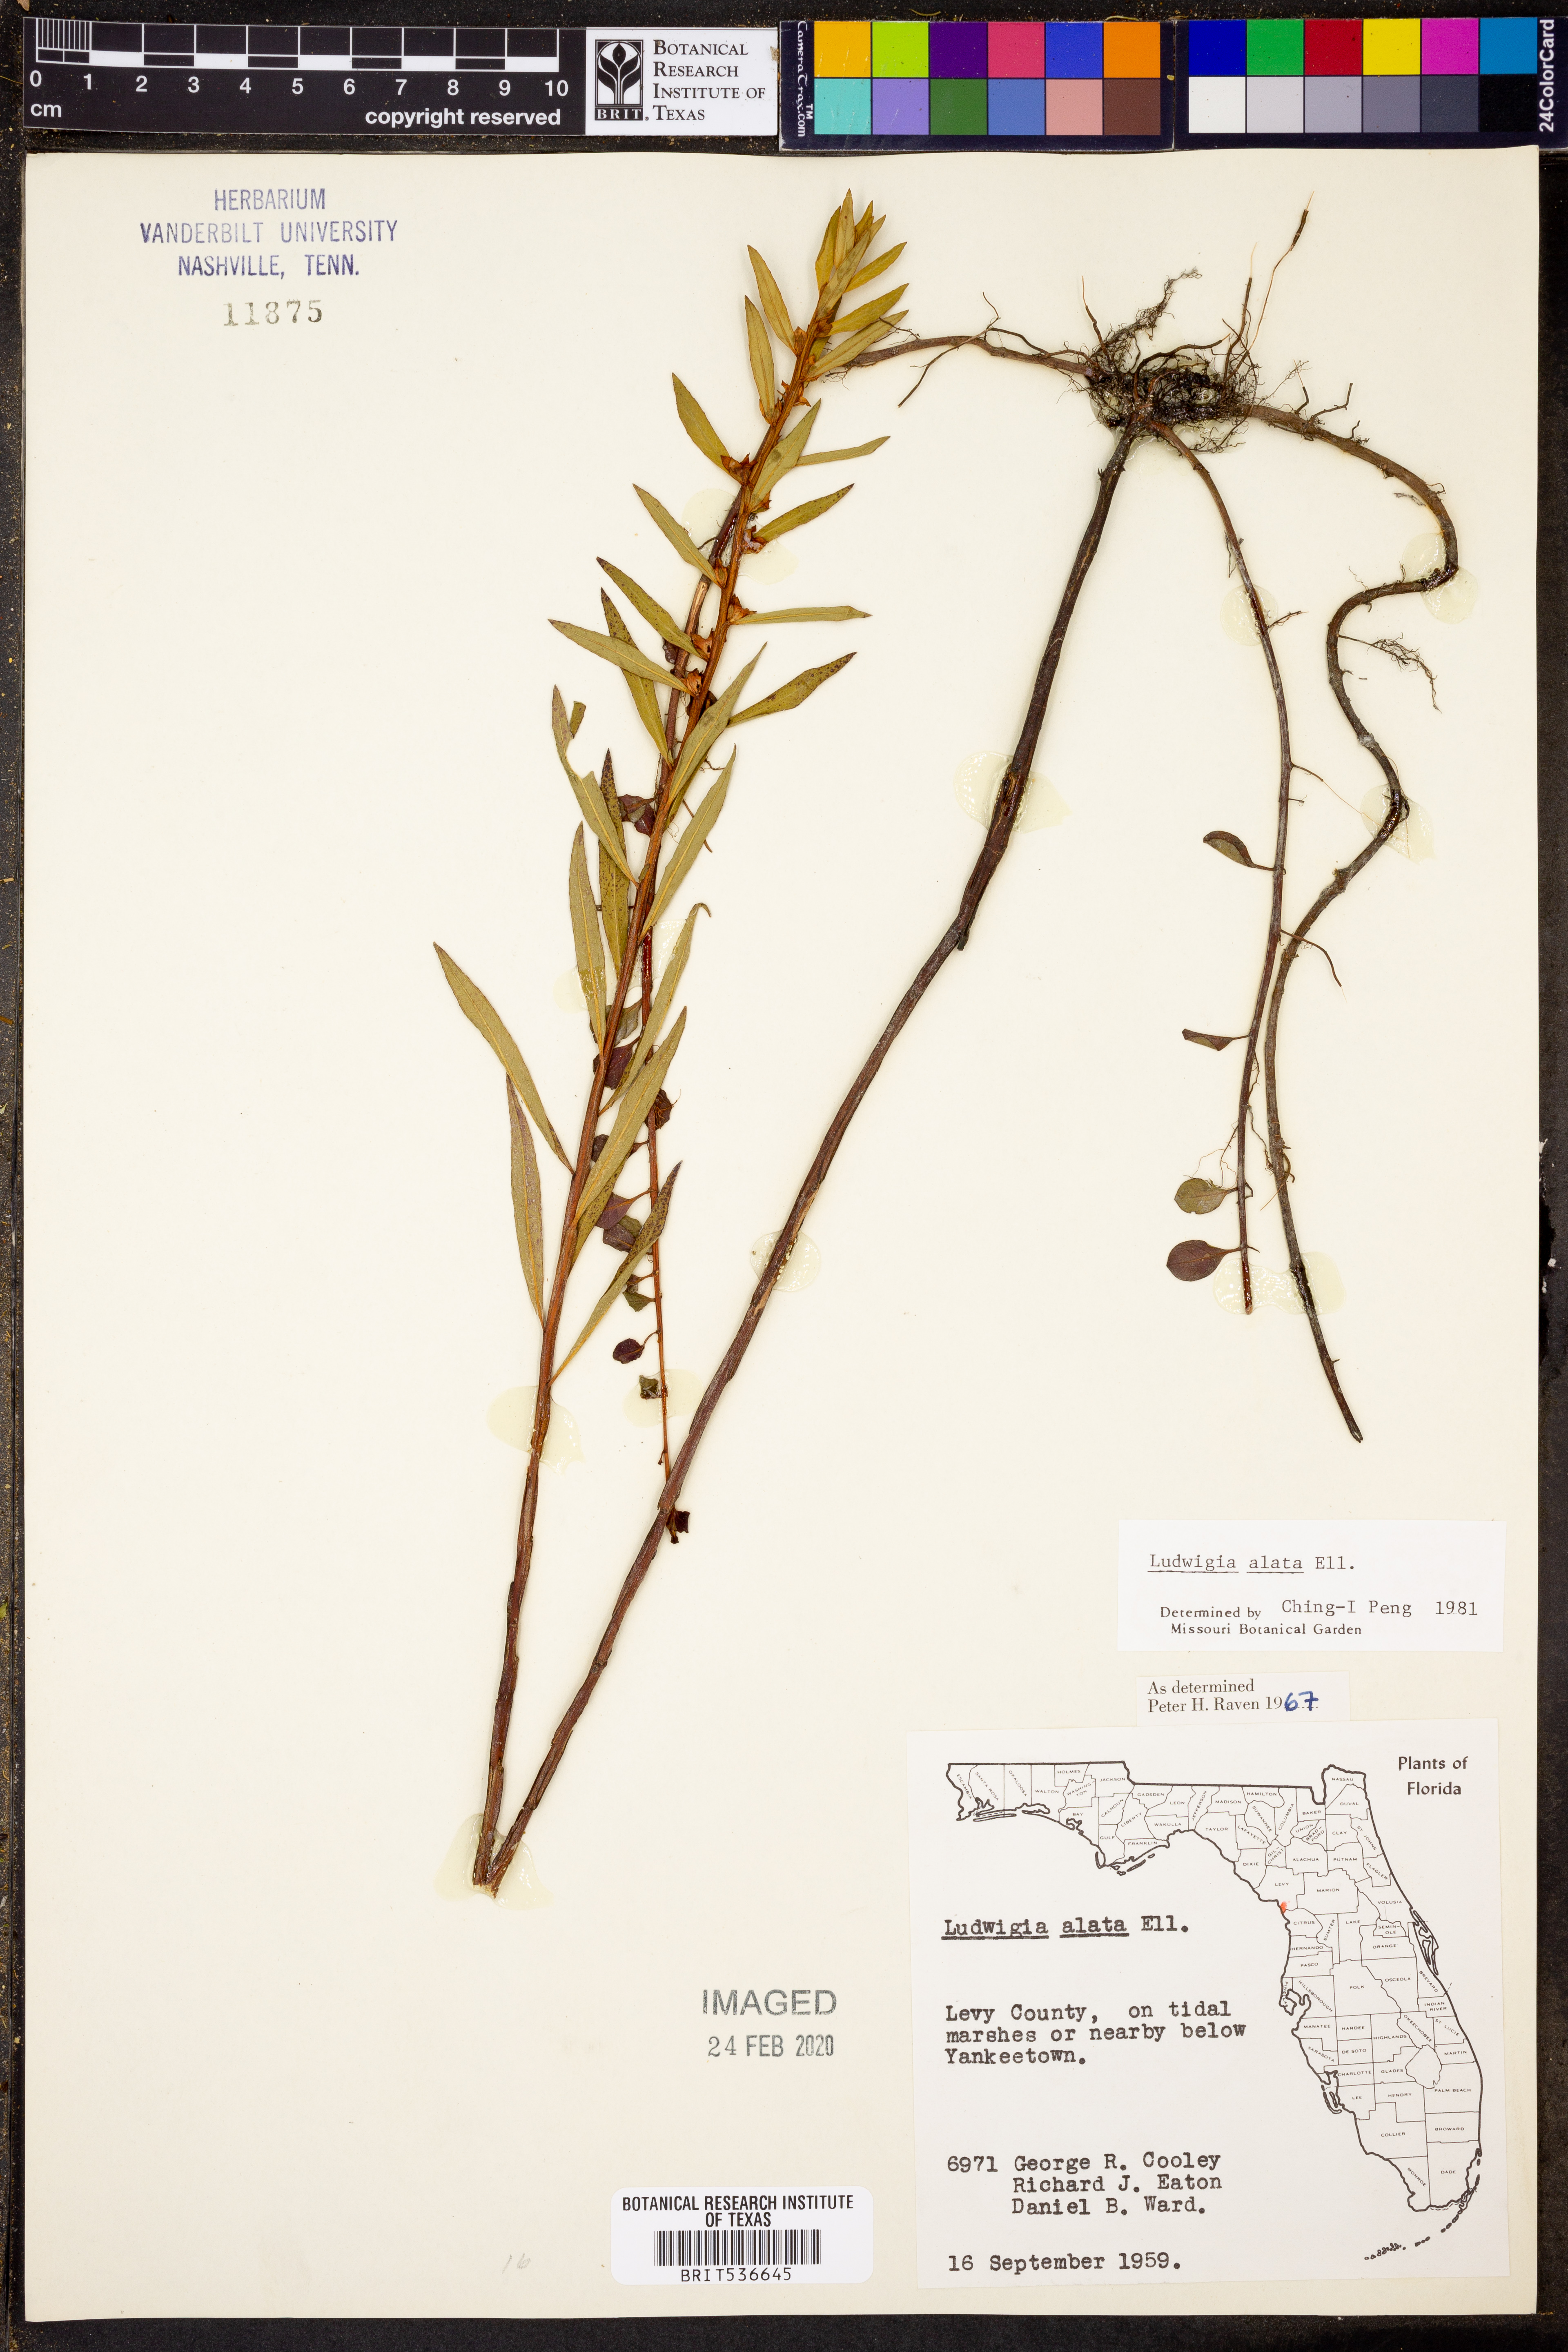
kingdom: Plantae
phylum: Tracheophyta
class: Magnoliopsida
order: Myrtales
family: Onagraceae
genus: Ludwigia
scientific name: Ludwigia alata
